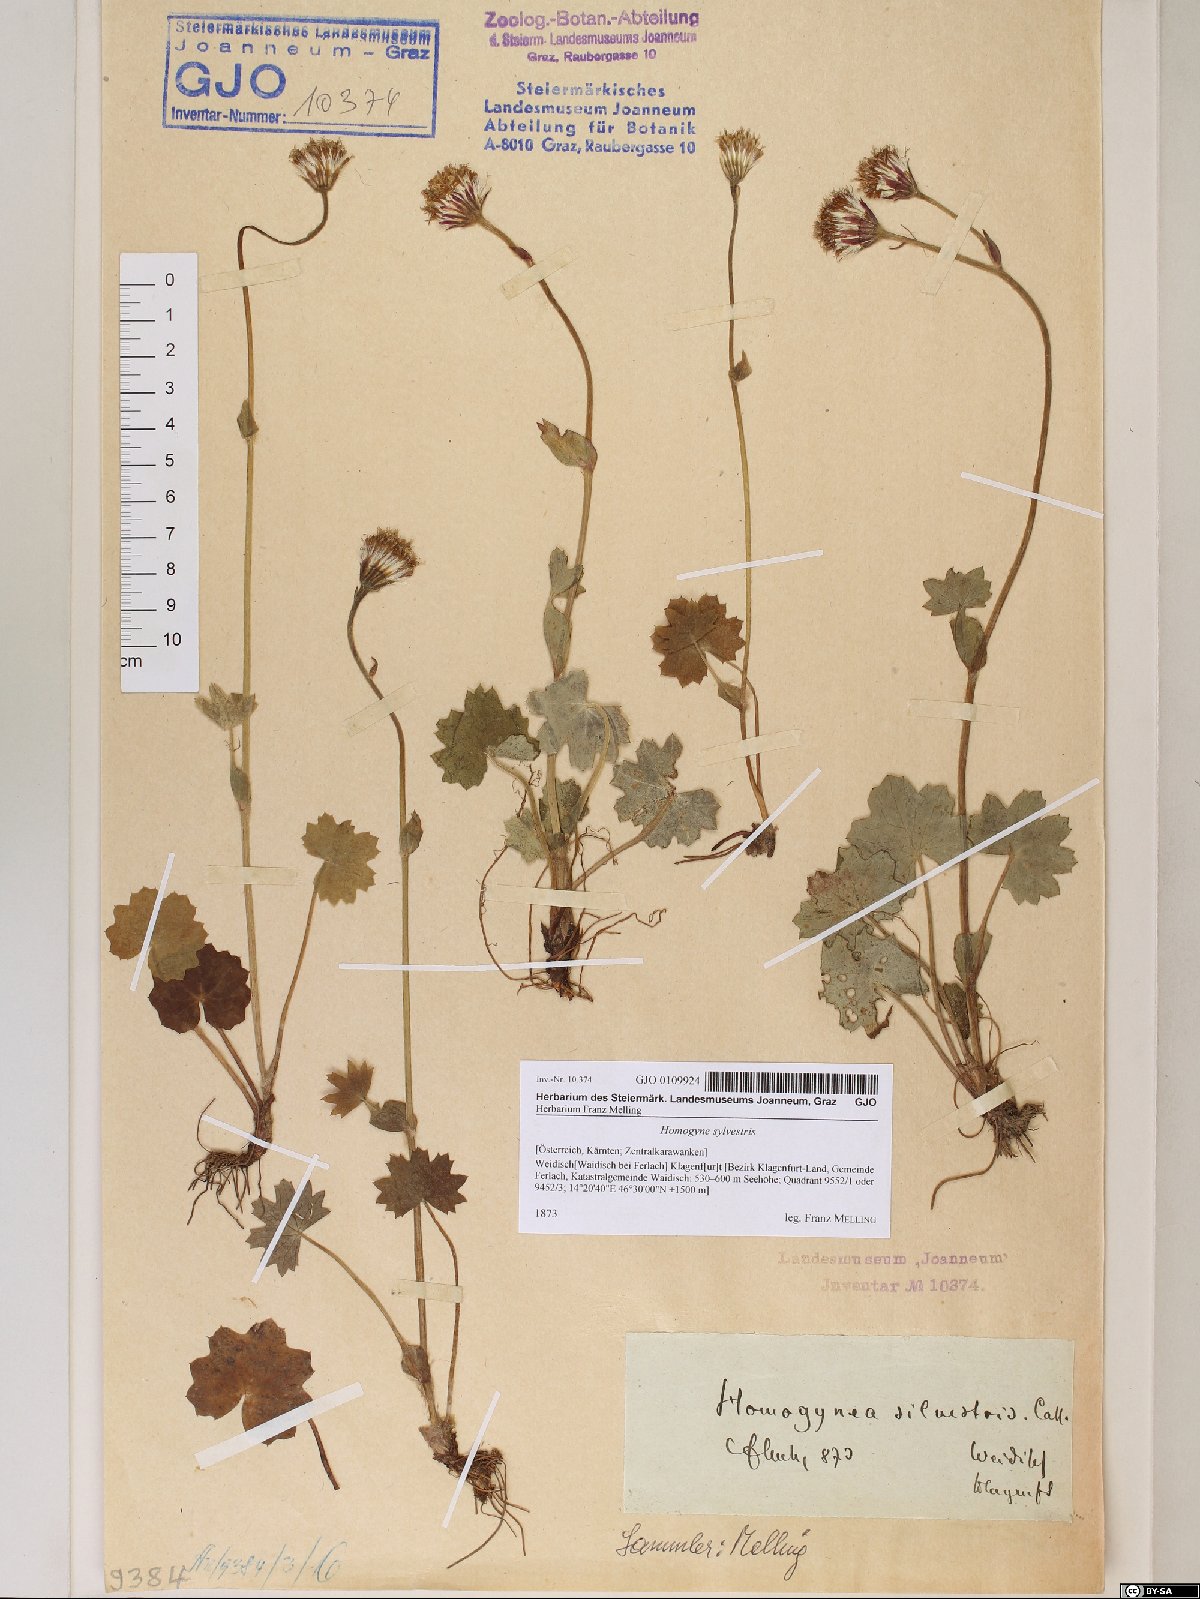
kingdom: Plantae
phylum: Tracheophyta
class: Magnoliopsida
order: Asterales
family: Asteraceae
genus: Homogyne
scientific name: Homogyne sylvestris
